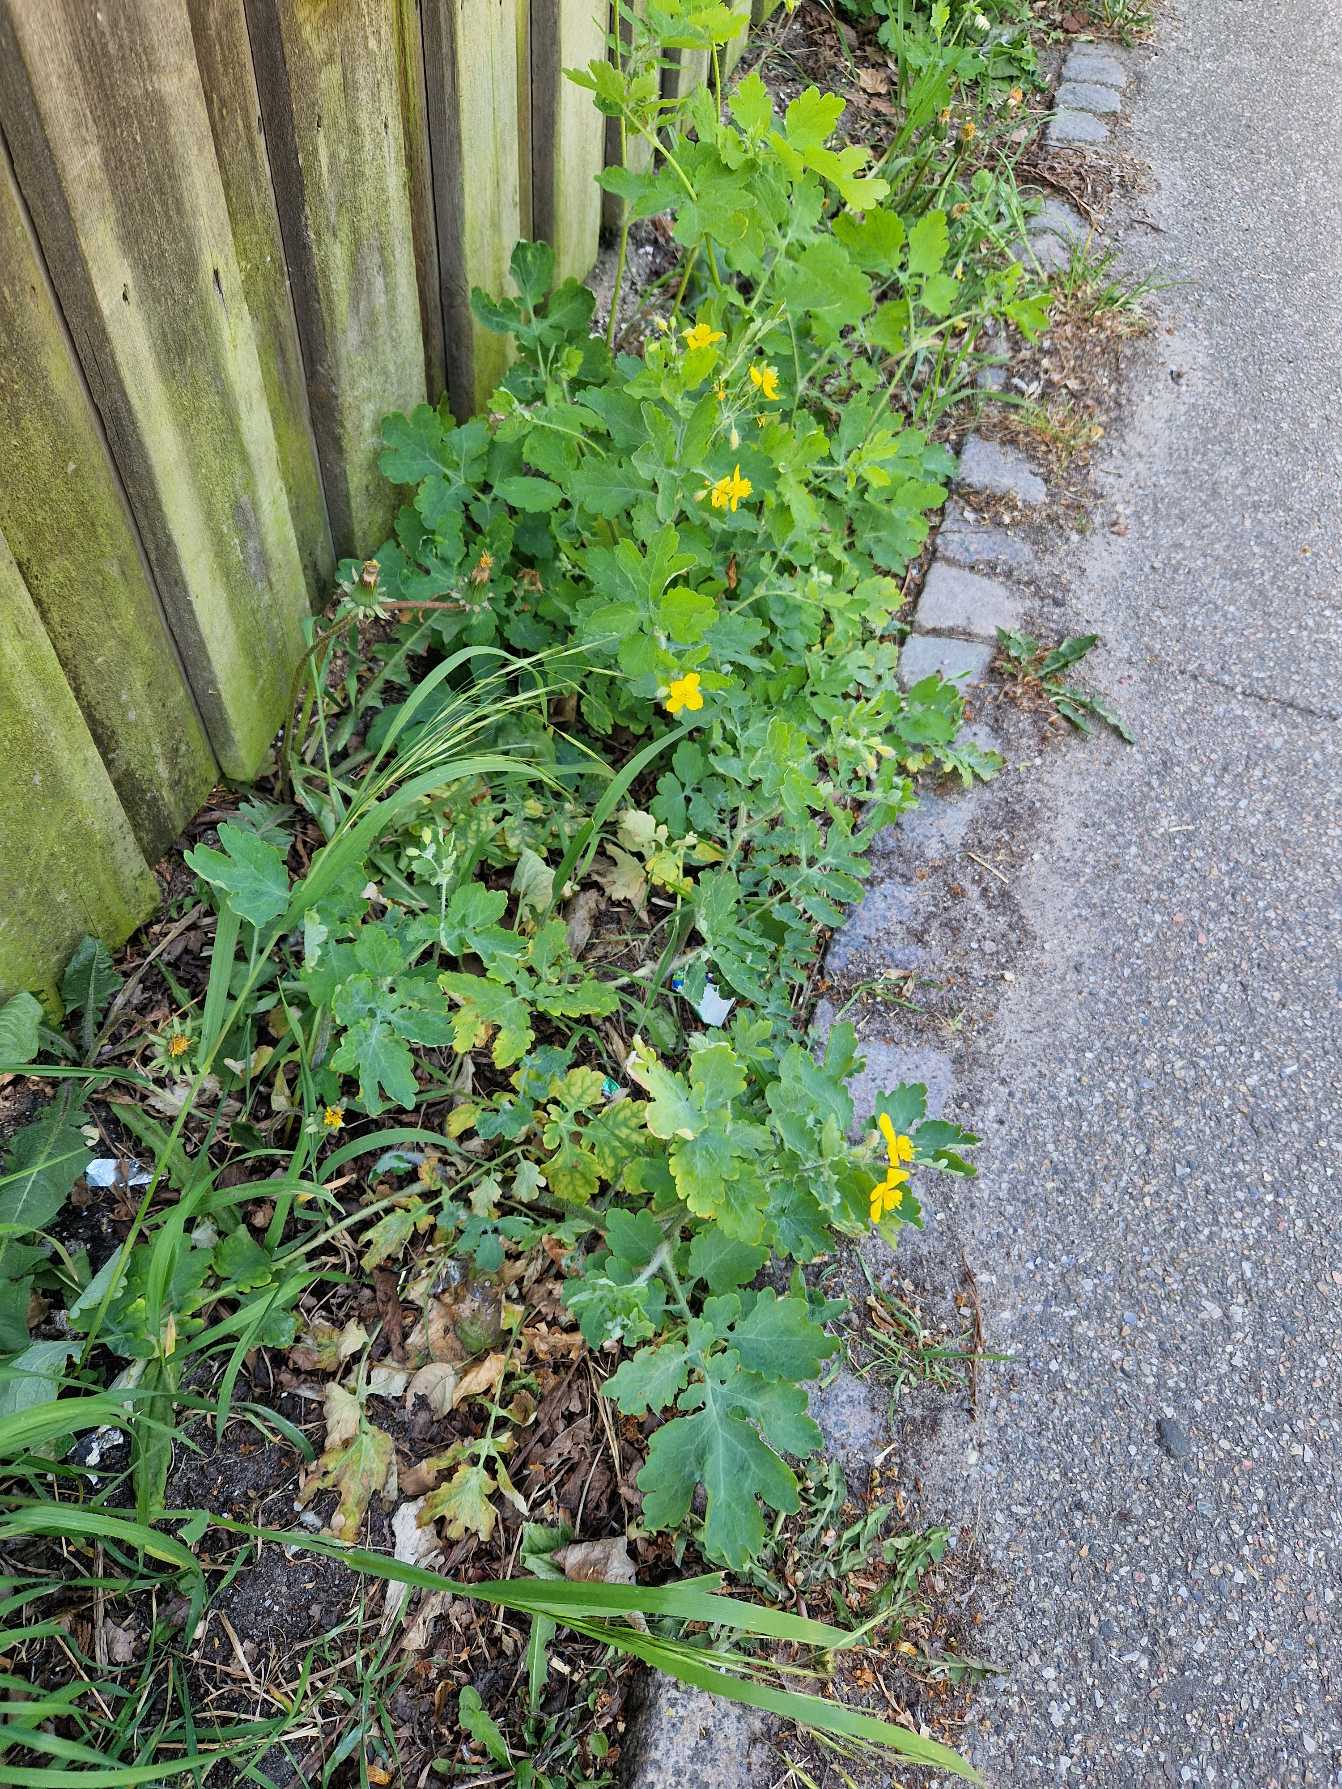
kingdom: Plantae
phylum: Tracheophyta
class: Magnoliopsida
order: Ranunculales
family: Papaveraceae
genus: Chelidonium
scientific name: Chelidonium majus
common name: Svaleurt
